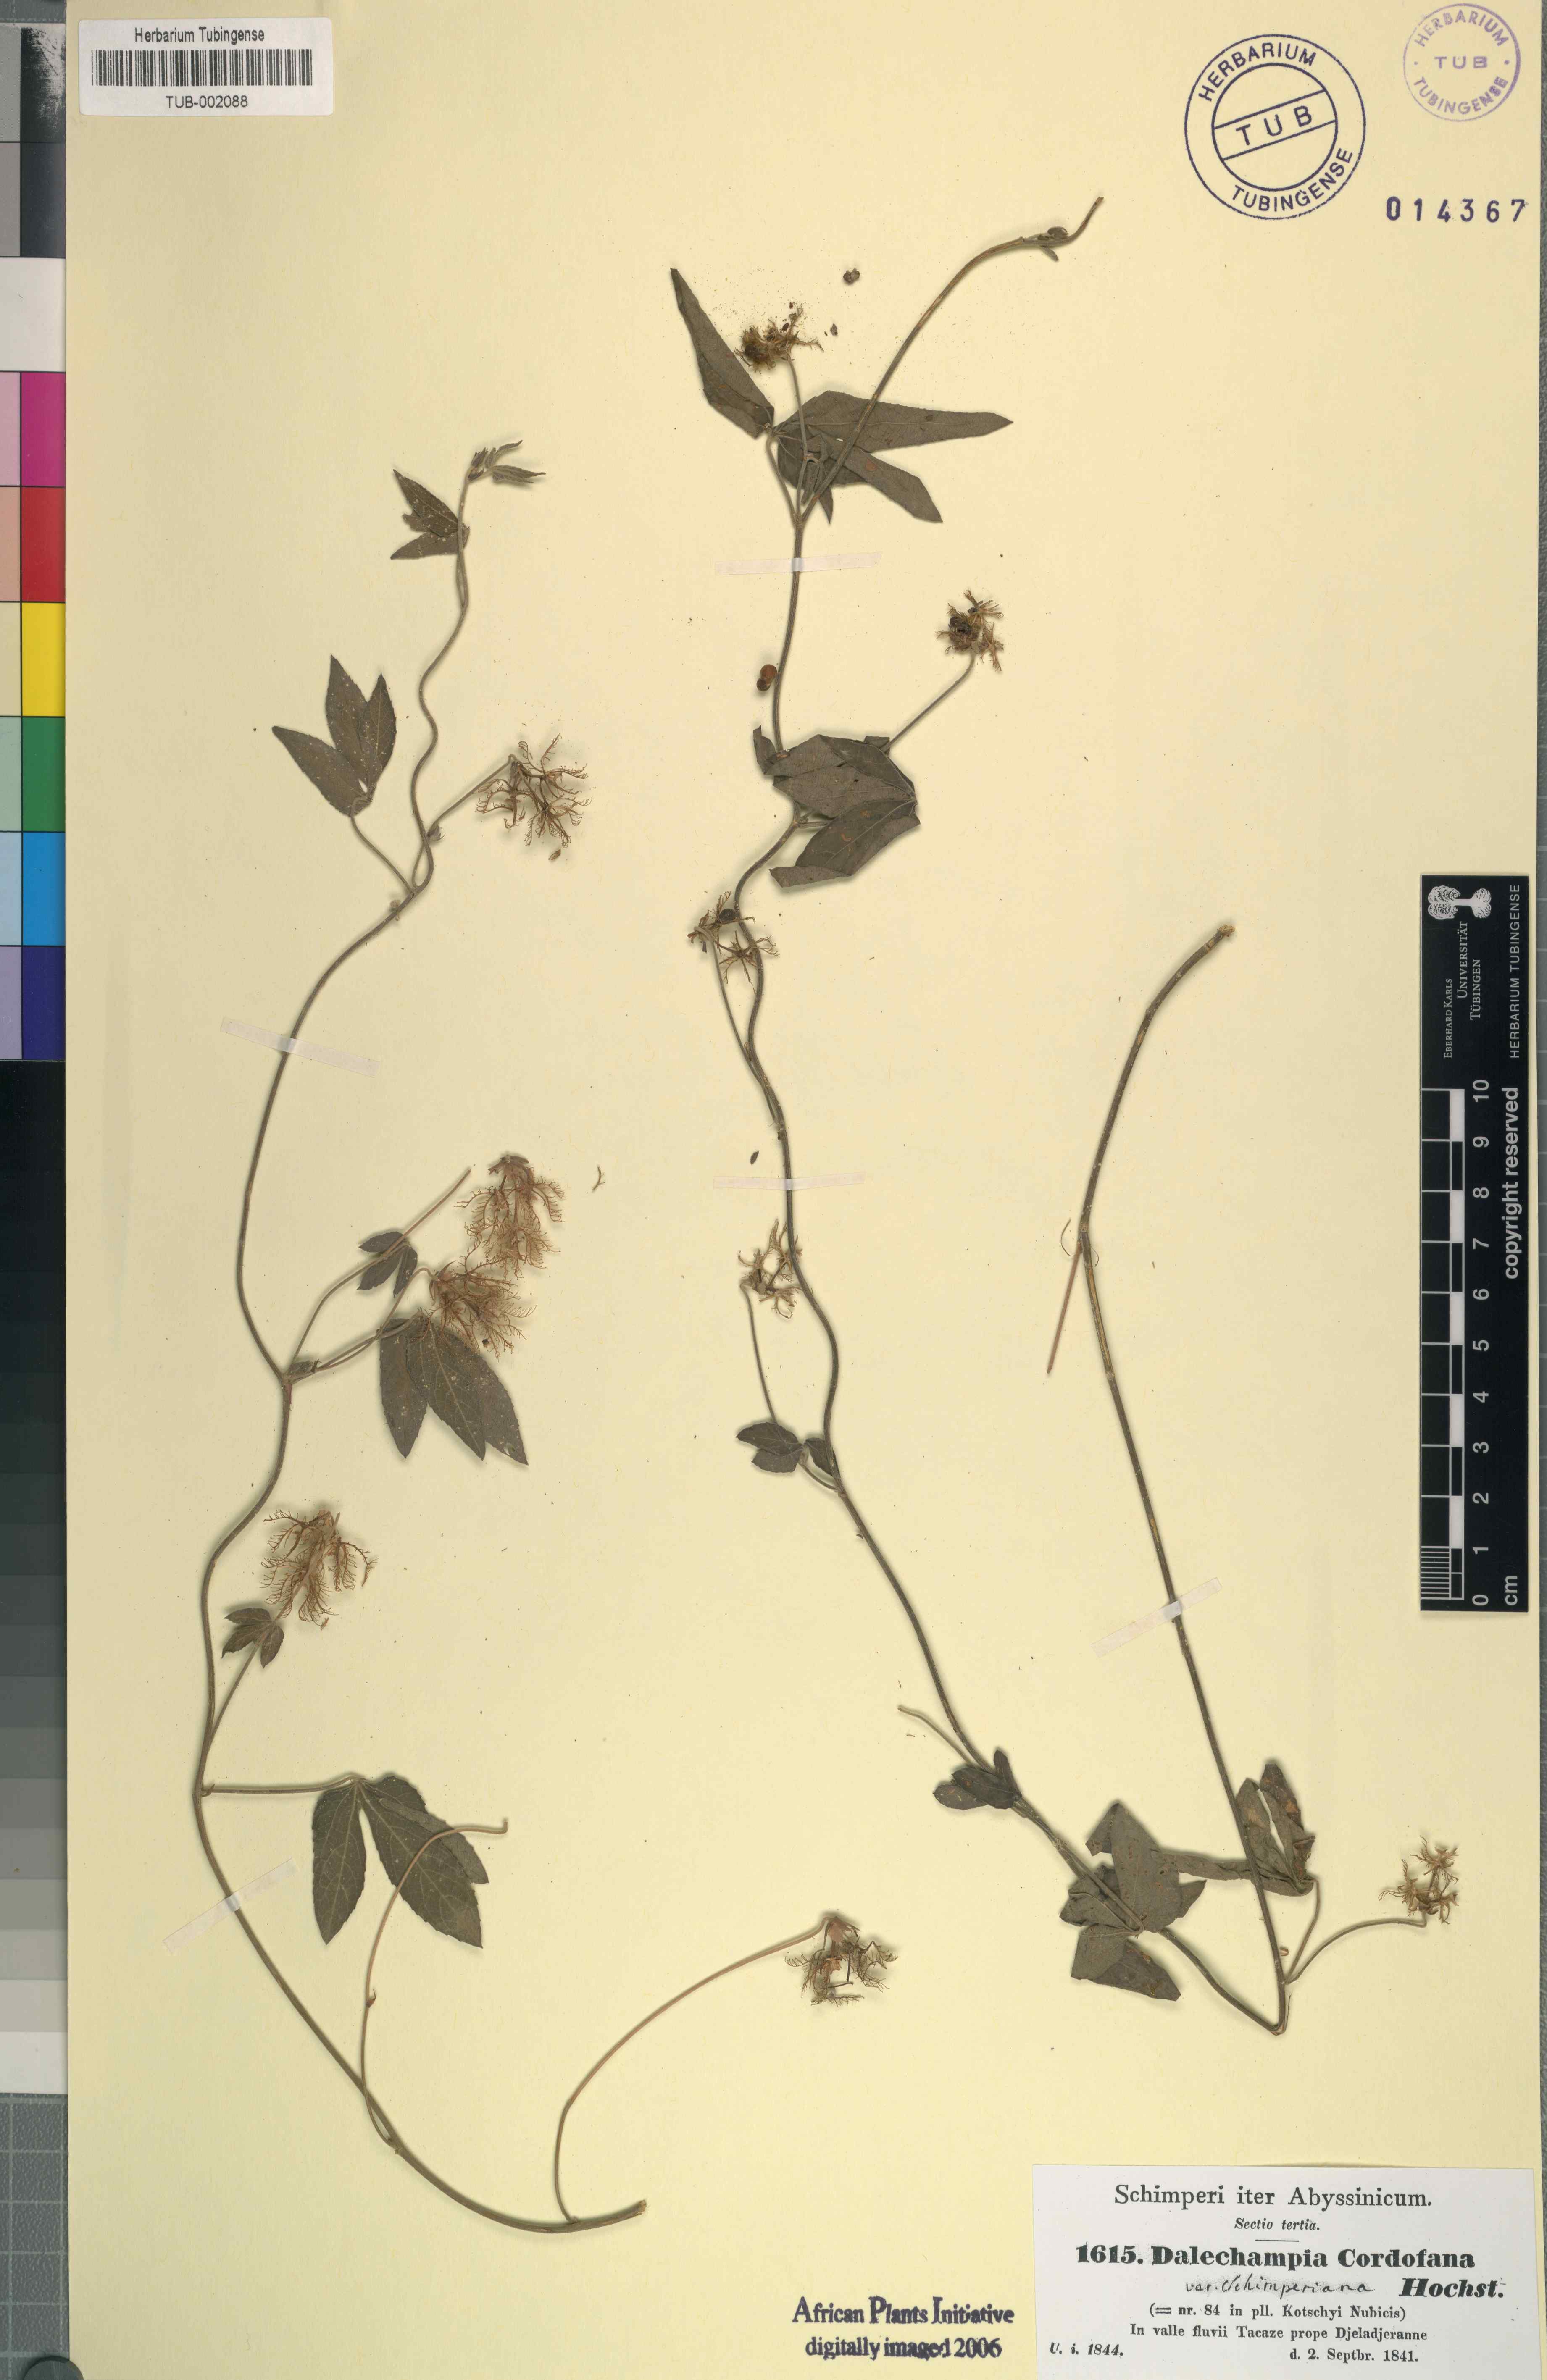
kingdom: Plantae
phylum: Tracheophyta
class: Magnoliopsida
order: Malpighiales
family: Euphorbiaceae
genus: Dalechampia
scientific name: Dalechampia scandens
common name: Spurgecreeper
